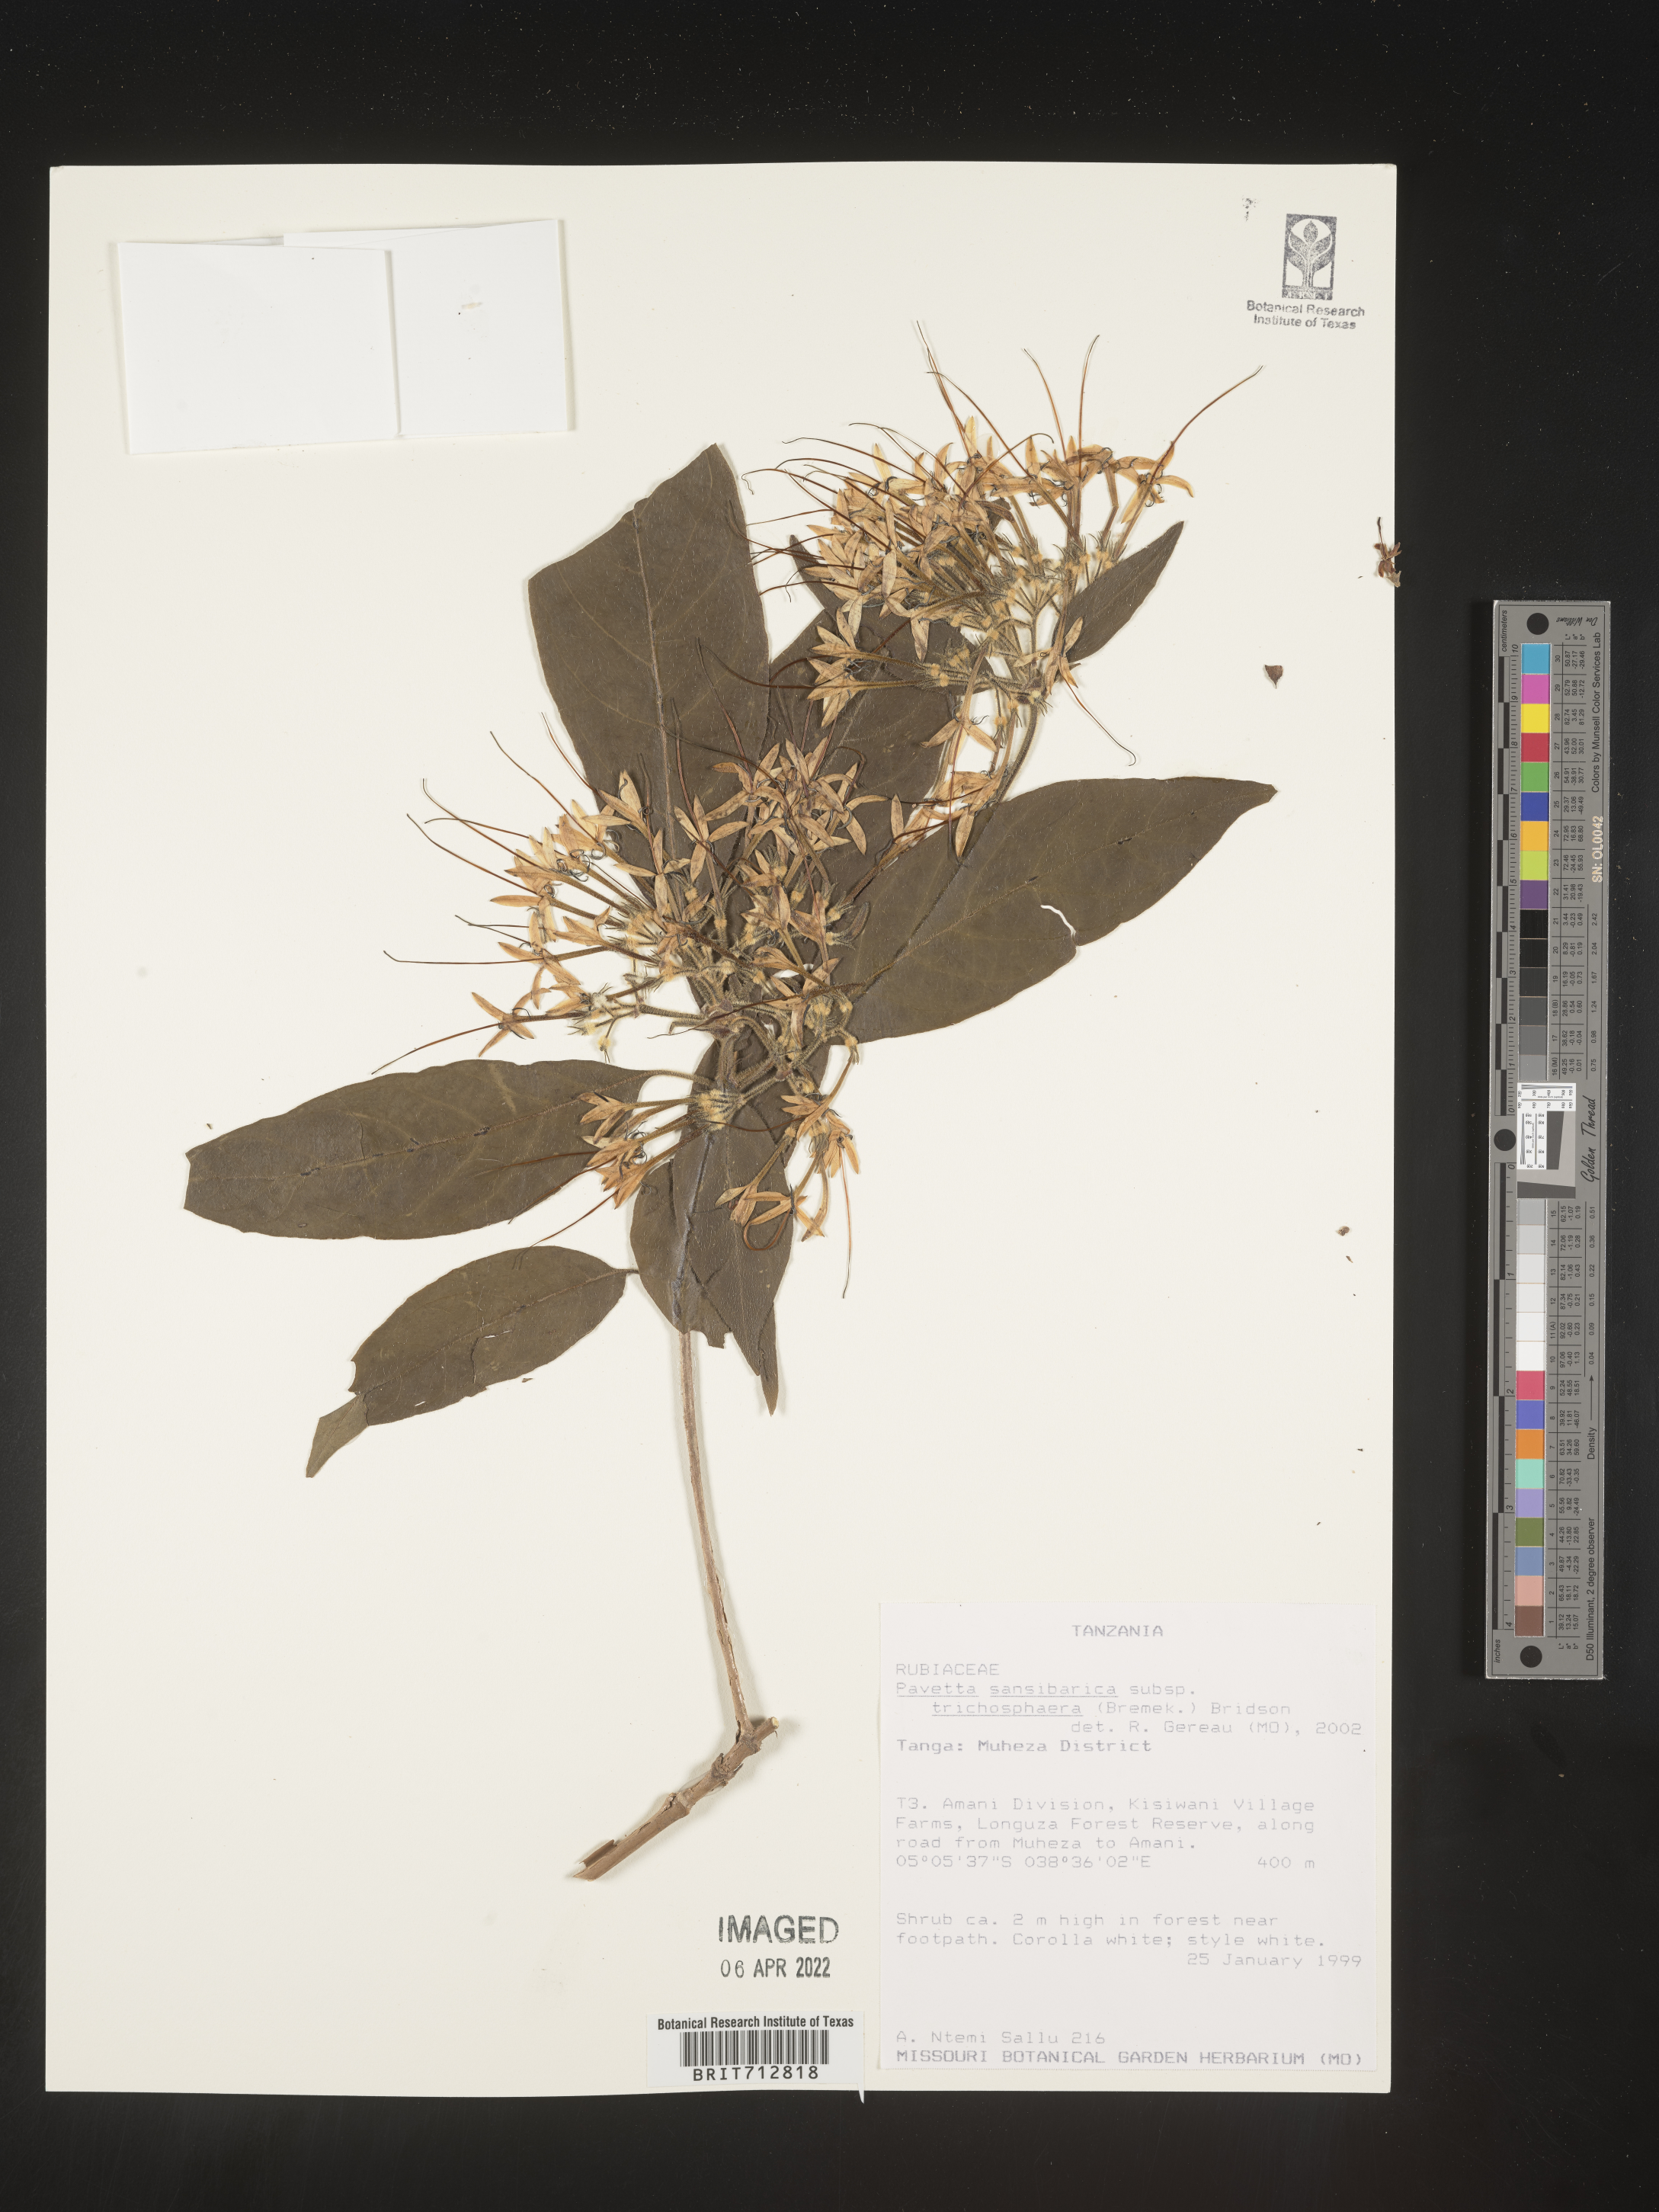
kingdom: Plantae
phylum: Tracheophyta
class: Magnoliopsida
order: Gentianales
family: Rubiaceae
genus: Pavetta
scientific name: Pavetta
